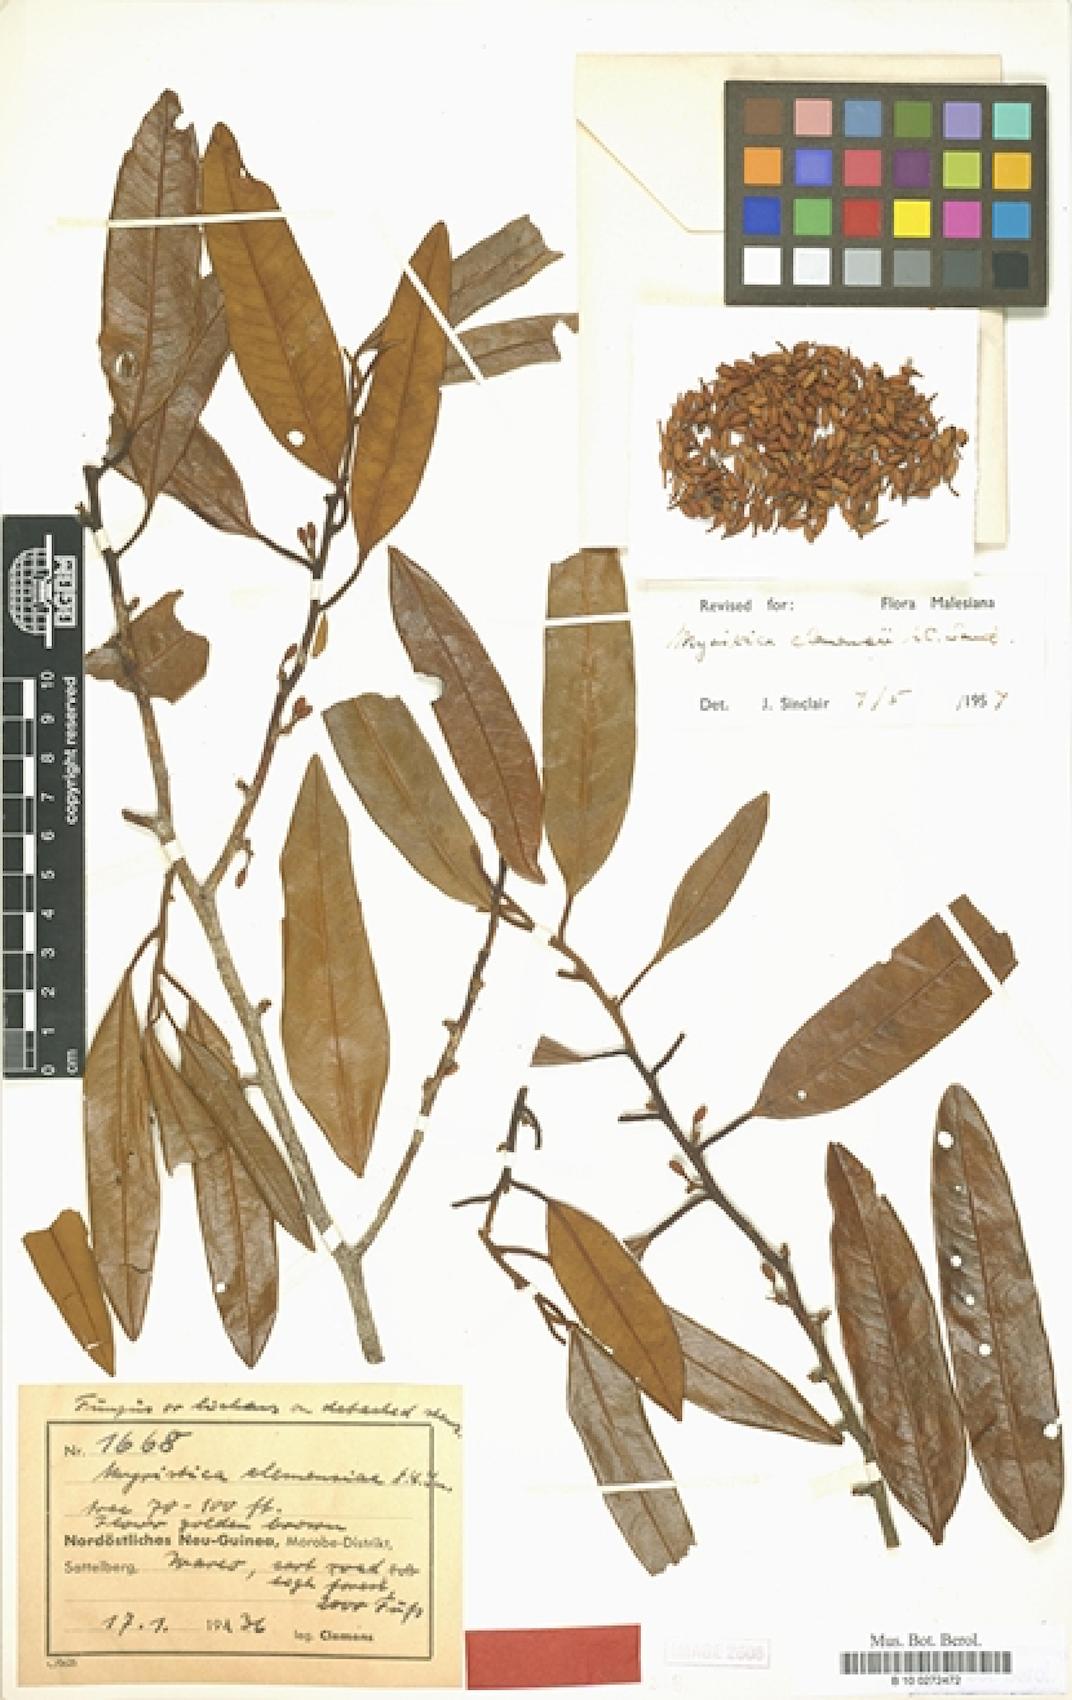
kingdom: Plantae
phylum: Tracheophyta
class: Magnoliopsida
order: Magnoliales
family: Myristicaceae
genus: Myristica
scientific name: Myristica clemensii
